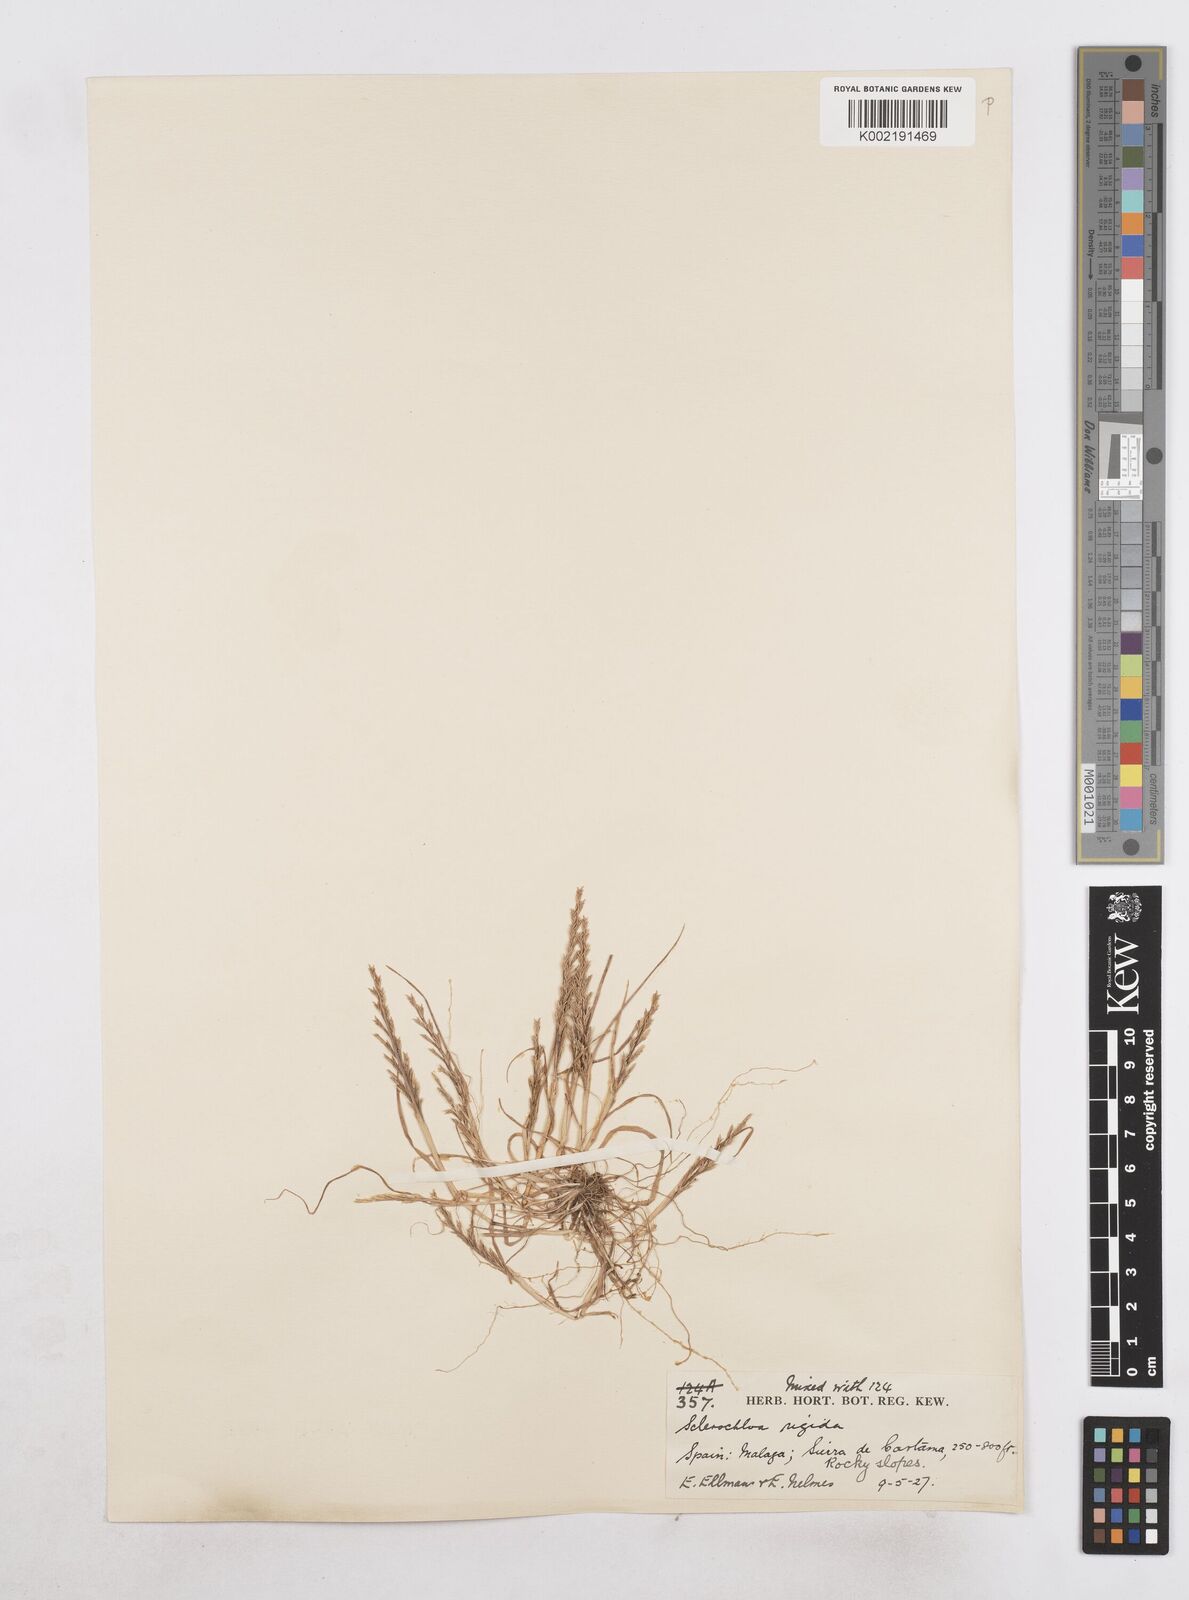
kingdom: Plantae
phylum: Tracheophyta
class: Liliopsida
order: Poales
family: Poaceae
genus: Catapodium
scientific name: Catapodium rigidum
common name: Fern-grass
